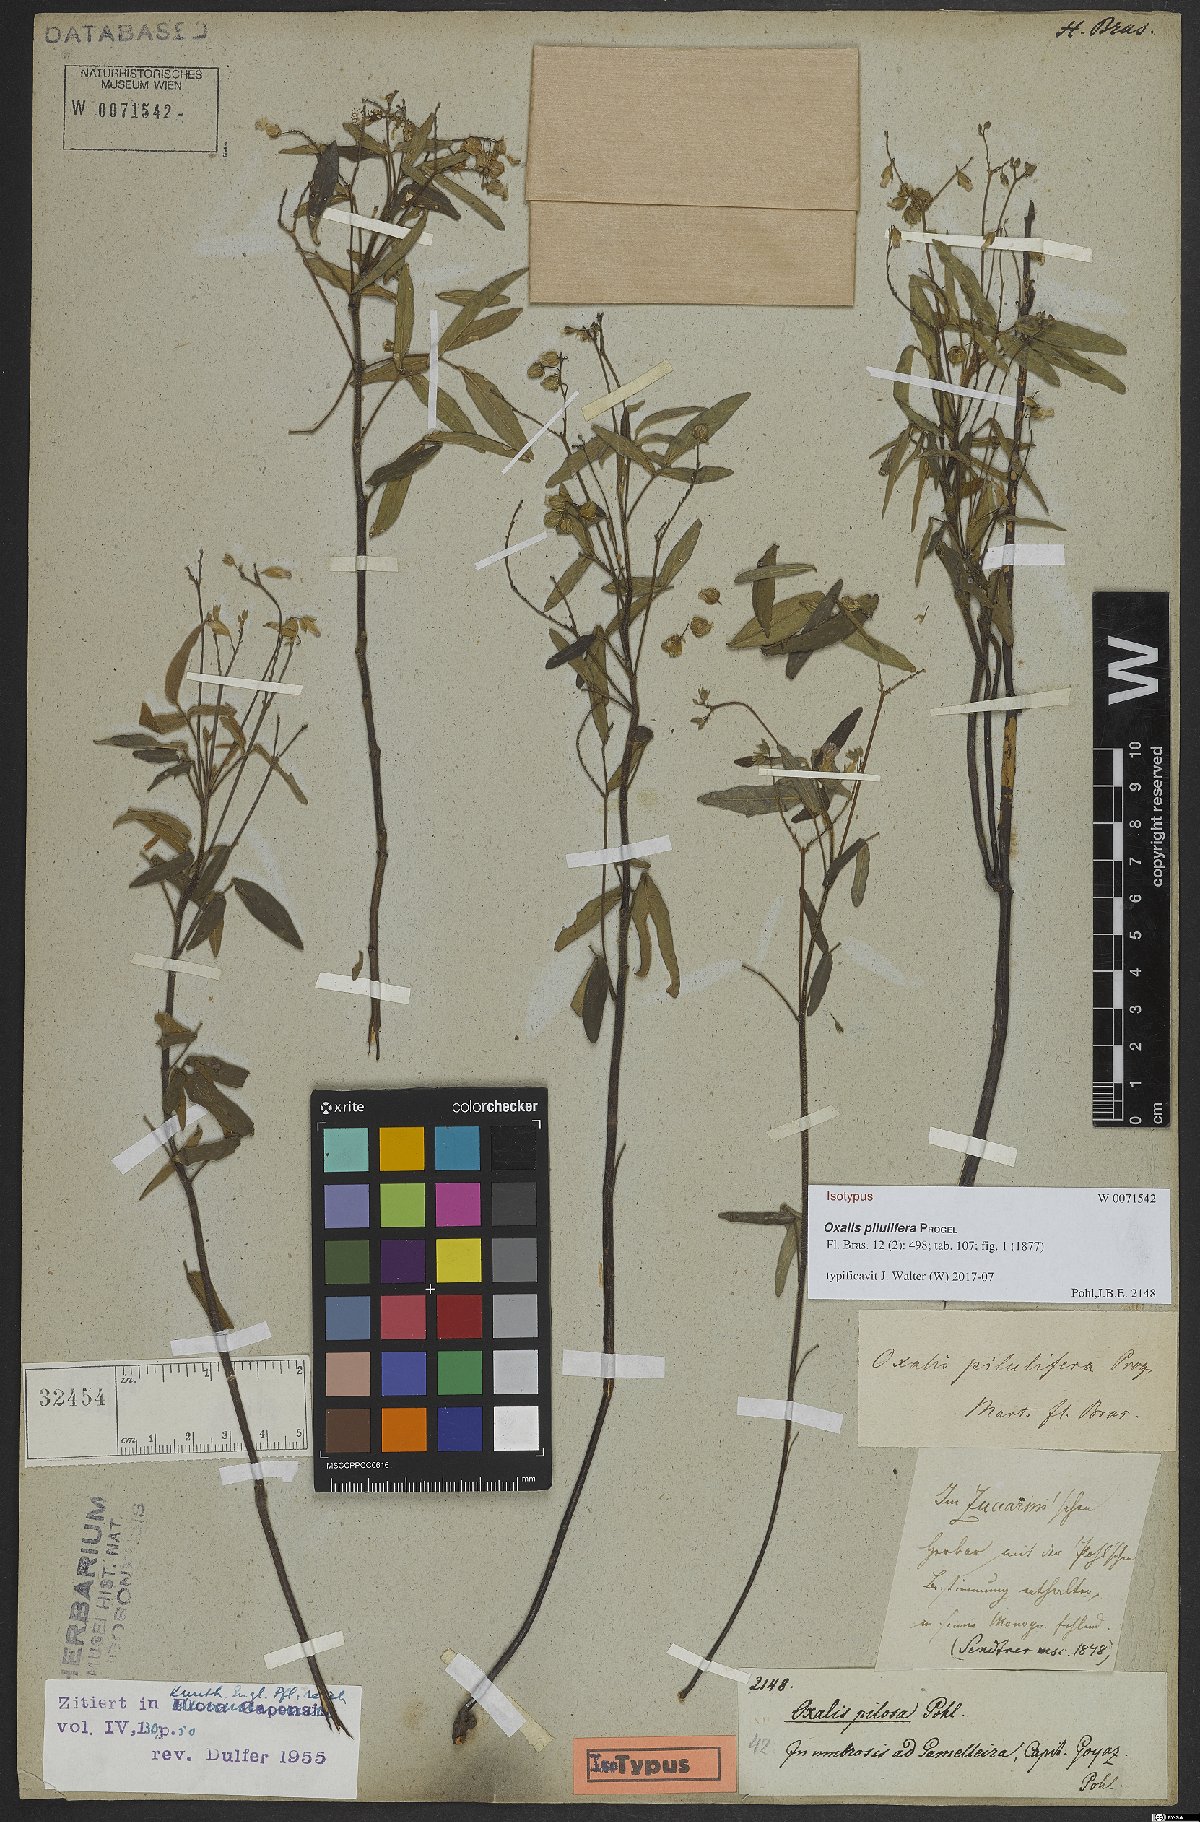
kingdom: Plantae
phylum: Tracheophyta
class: Magnoliopsida
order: Oxalidales
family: Oxalidaceae
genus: Oxalis
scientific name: Oxalis pilulifera
